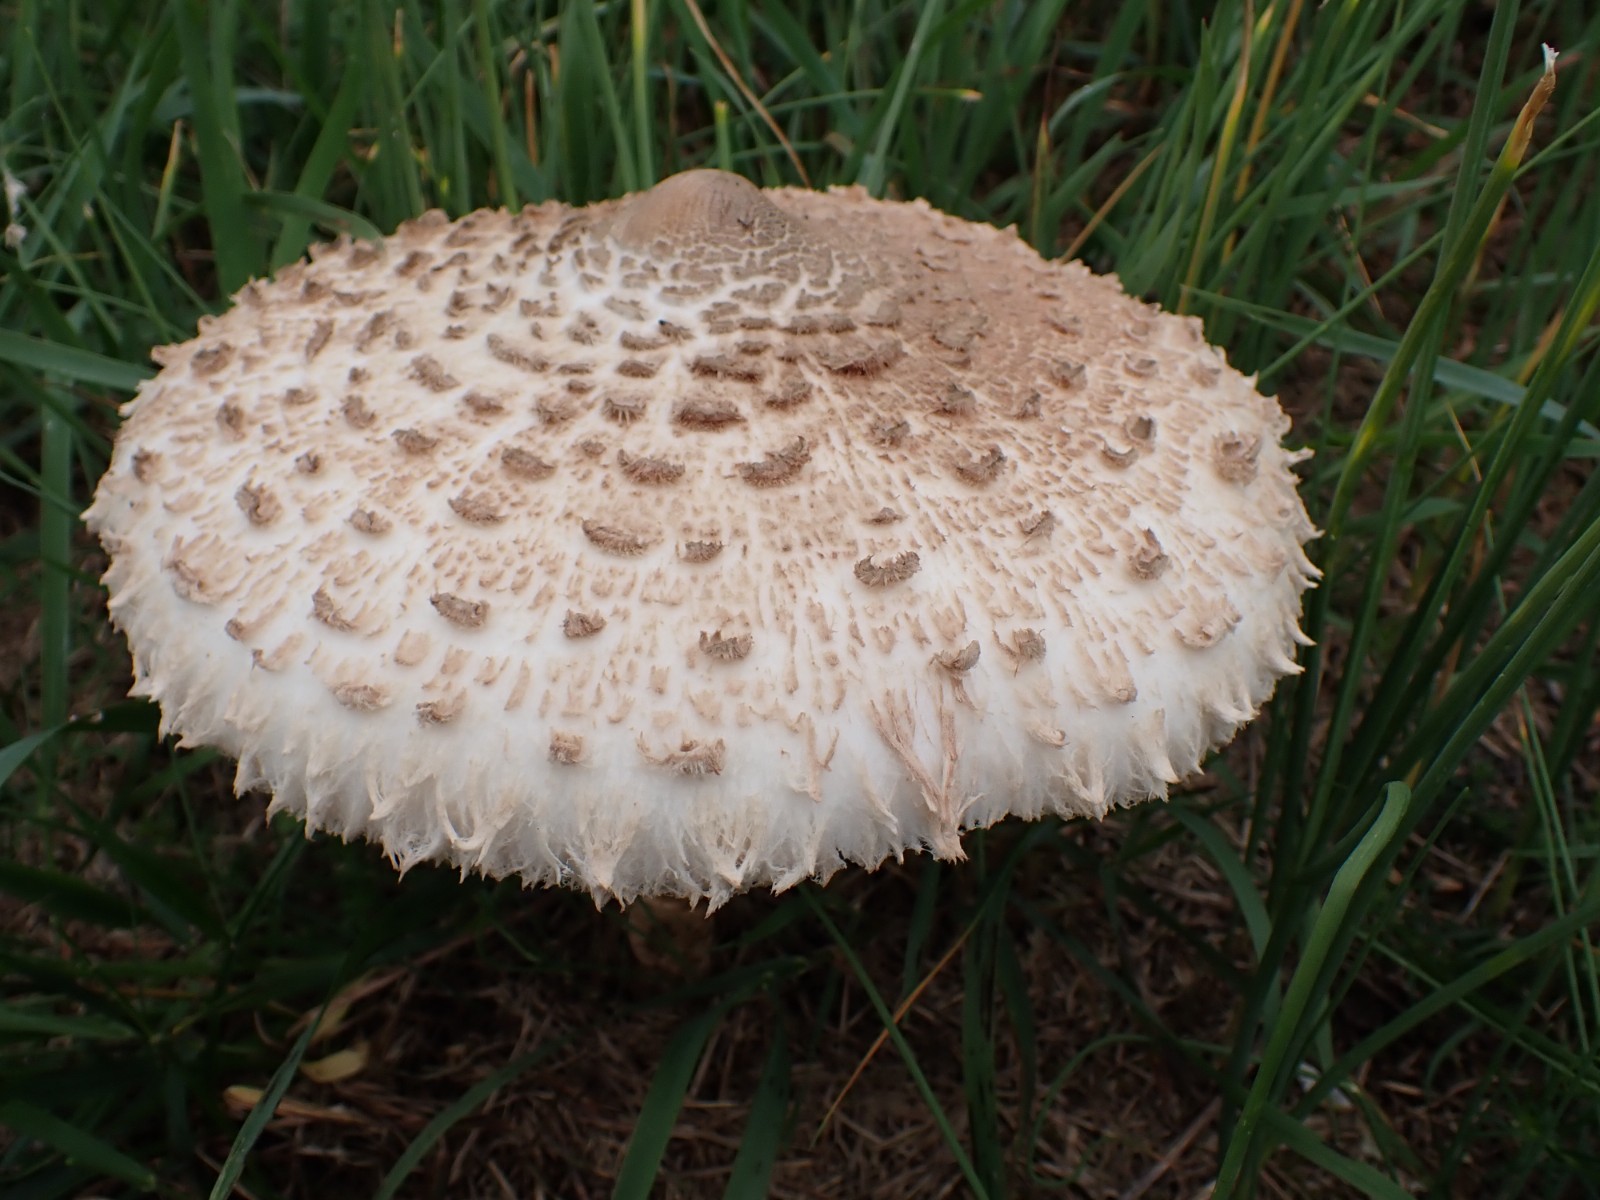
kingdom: Fungi
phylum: Basidiomycota
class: Agaricomycetes
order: Agaricales
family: Agaricaceae
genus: Macrolepiota
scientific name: Macrolepiota procera
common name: stor kæmpeparasolhat
